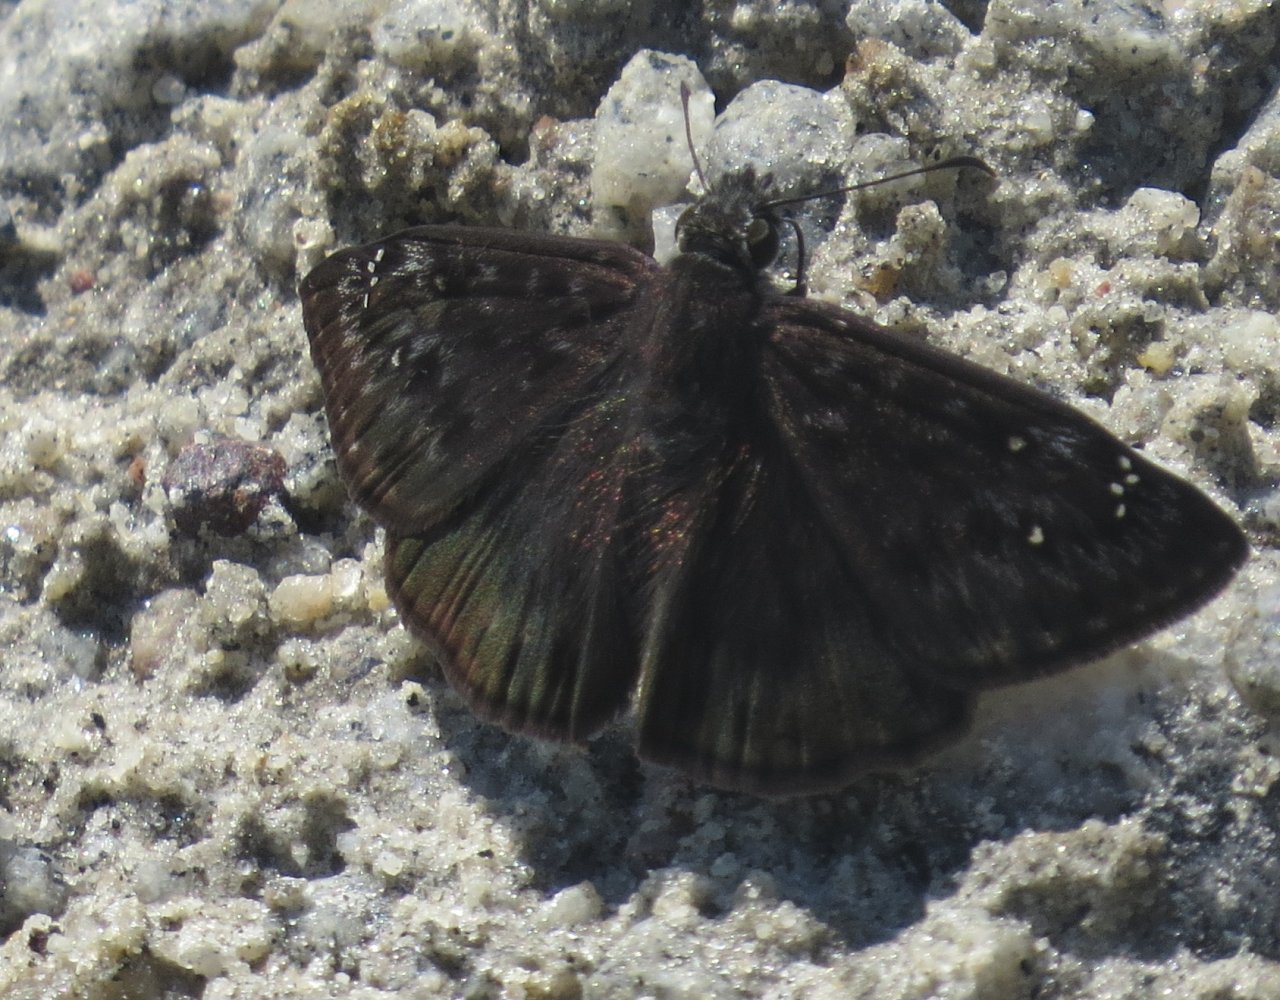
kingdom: Animalia
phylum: Arthropoda
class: Insecta
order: Lepidoptera
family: Hesperiidae
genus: Gesta
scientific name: Gesta
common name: Horace's Duskywing
